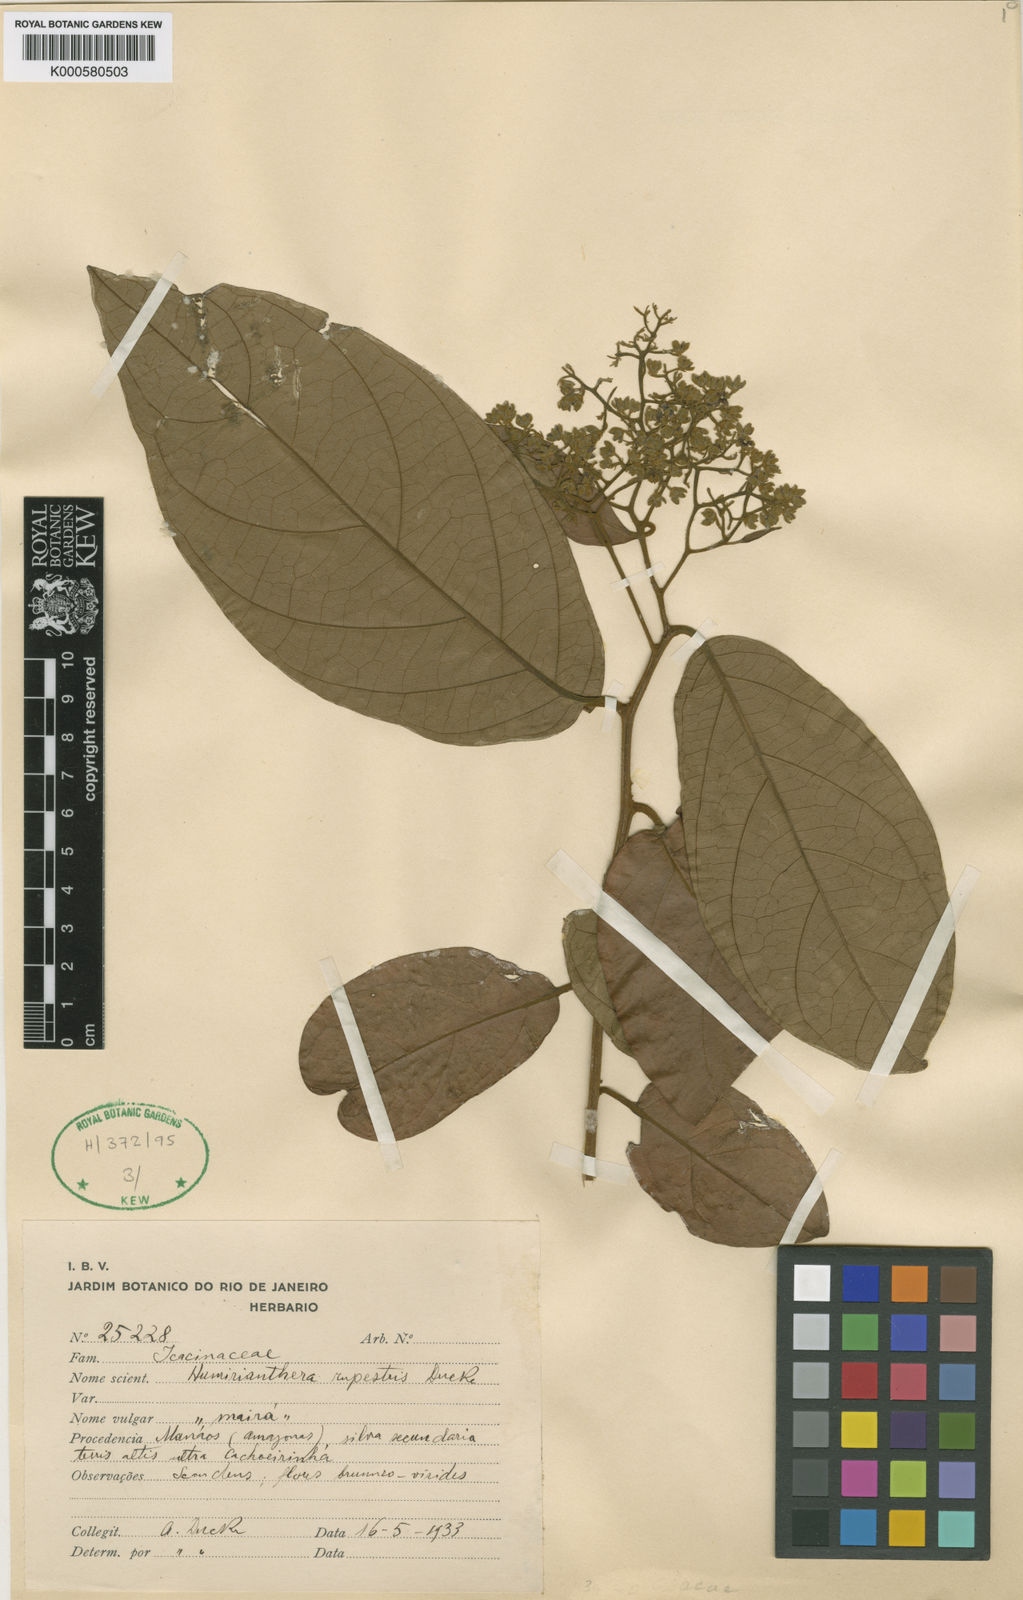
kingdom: Plantae
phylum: Tracheophyta
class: Magnoliopsida
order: Icacinales
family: Icacinaceae
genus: Casimirella
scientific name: Casimirella rupestris
